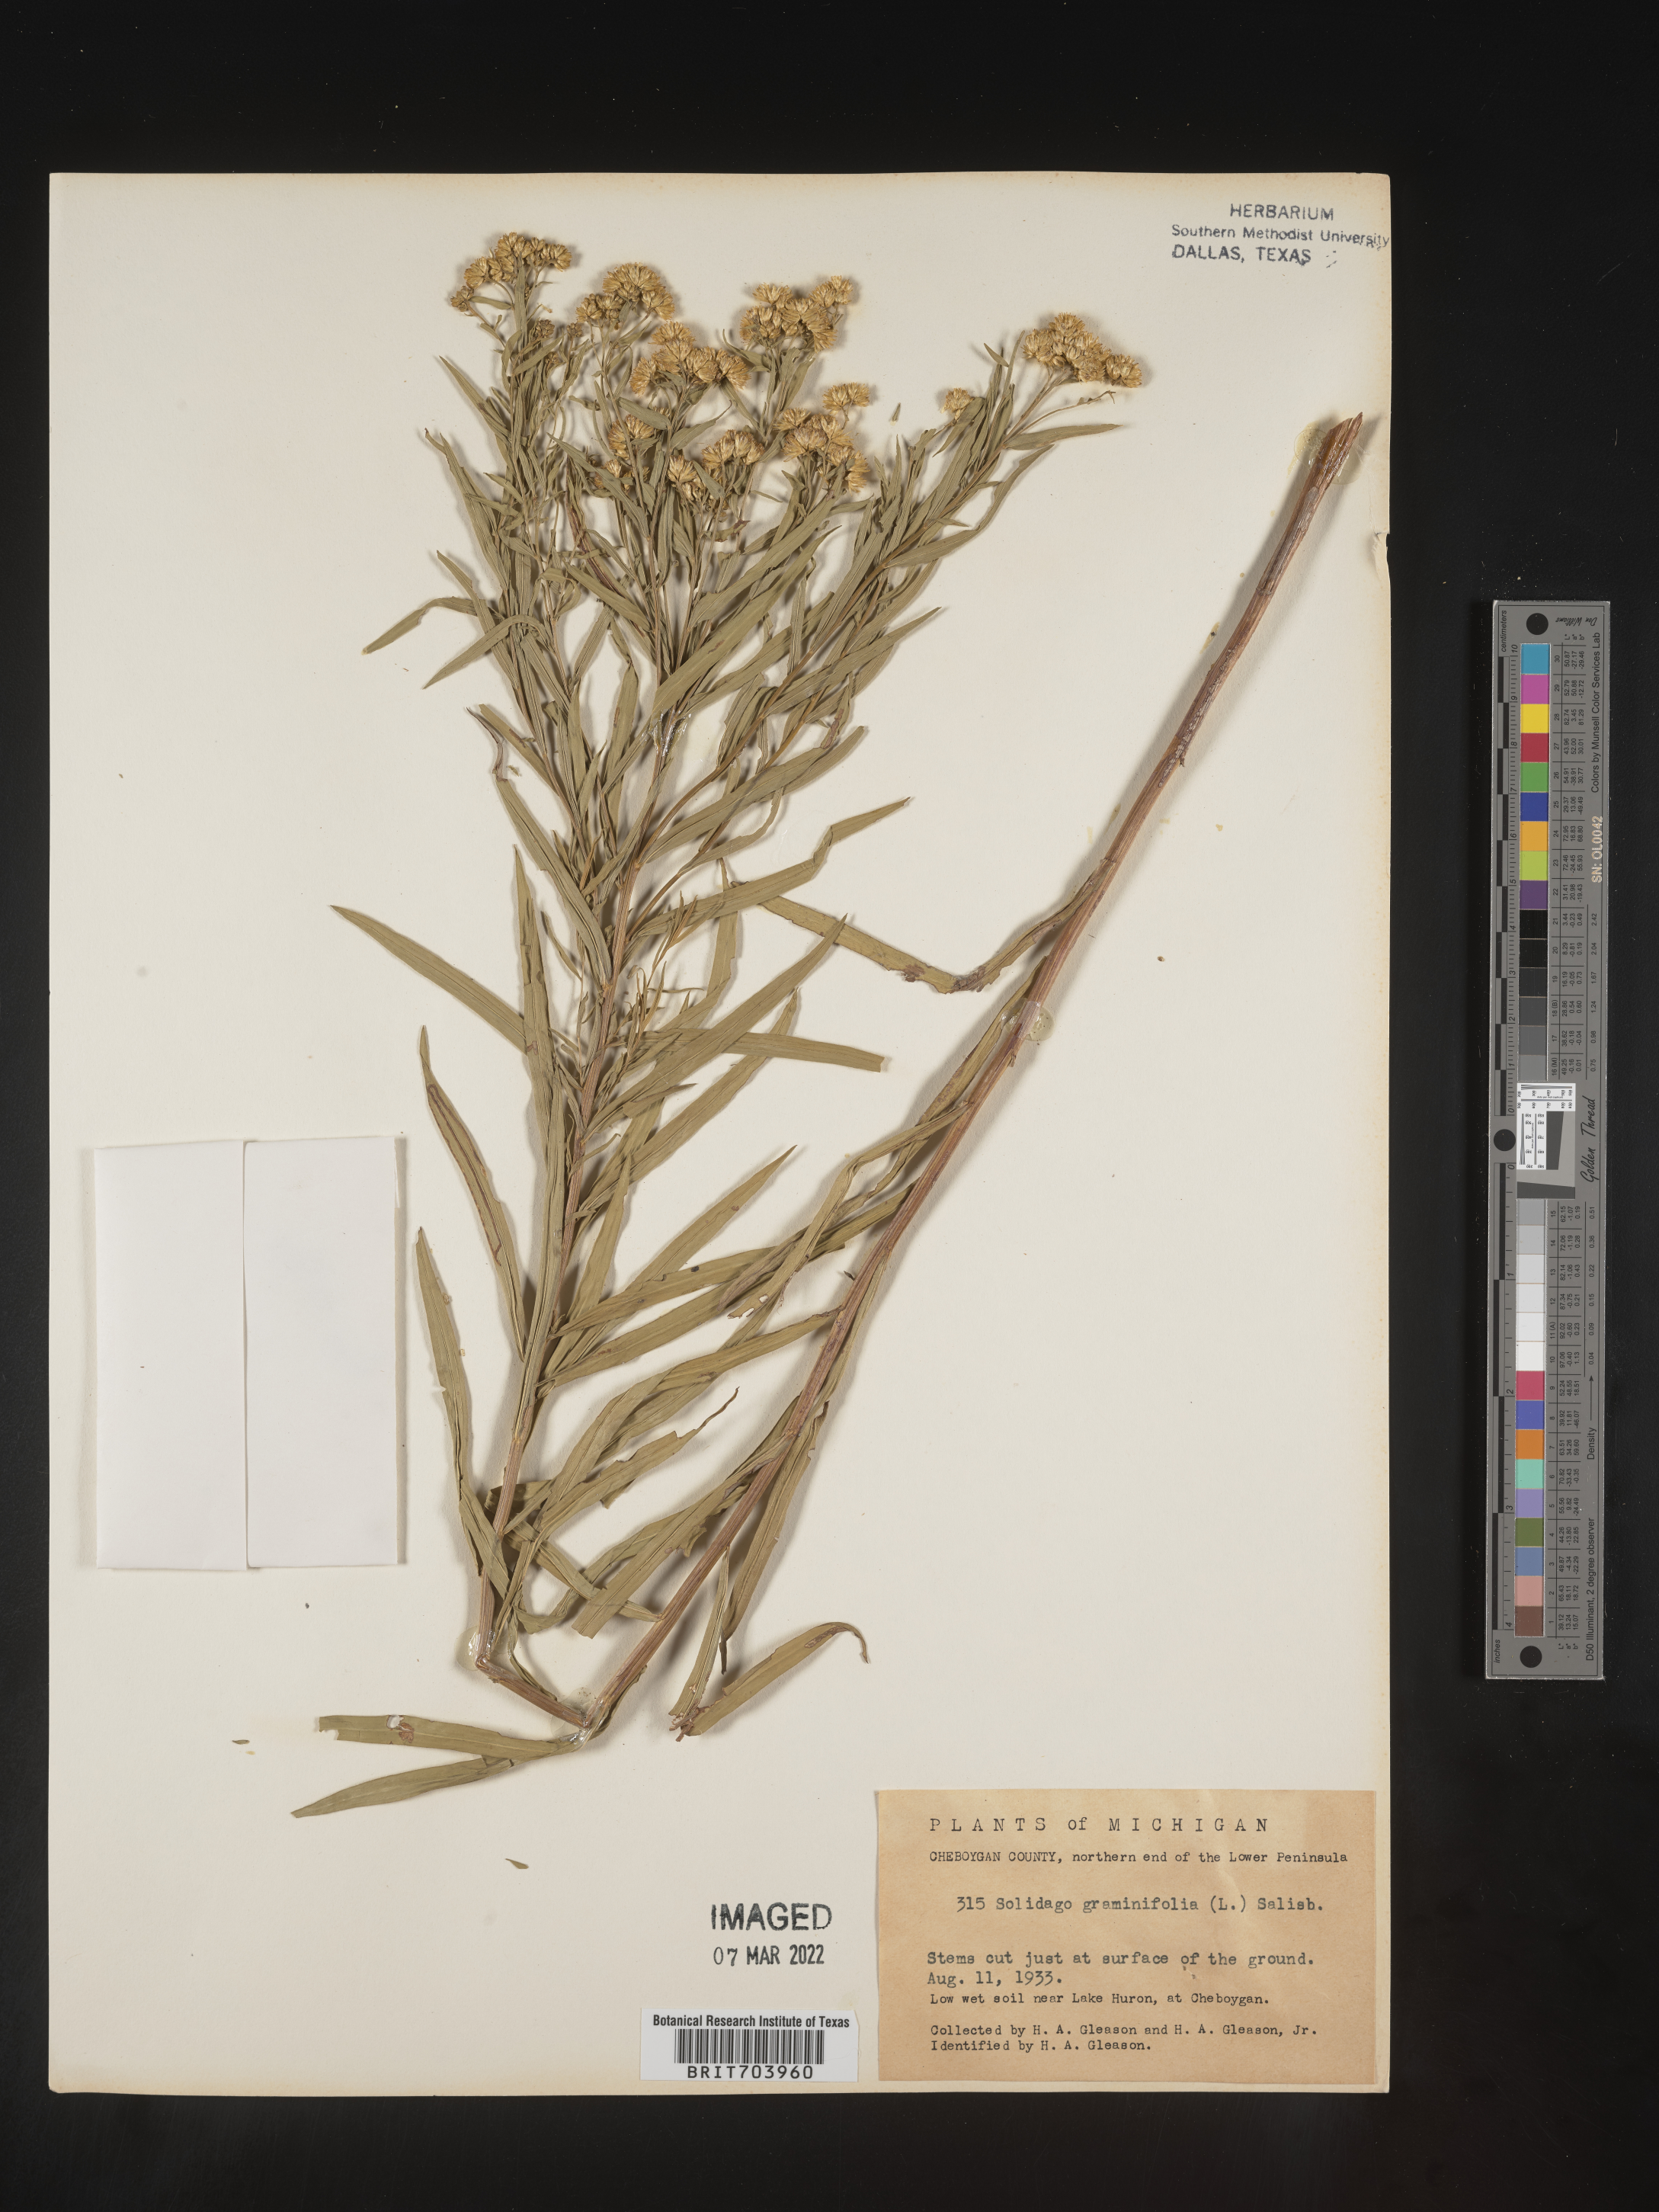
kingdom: Plantae
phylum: Tracheophyta
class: Magnoliopsida
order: Asterales
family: Asteraceae
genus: Euthamia
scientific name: Euthamia graminifolia
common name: Common goldentop
